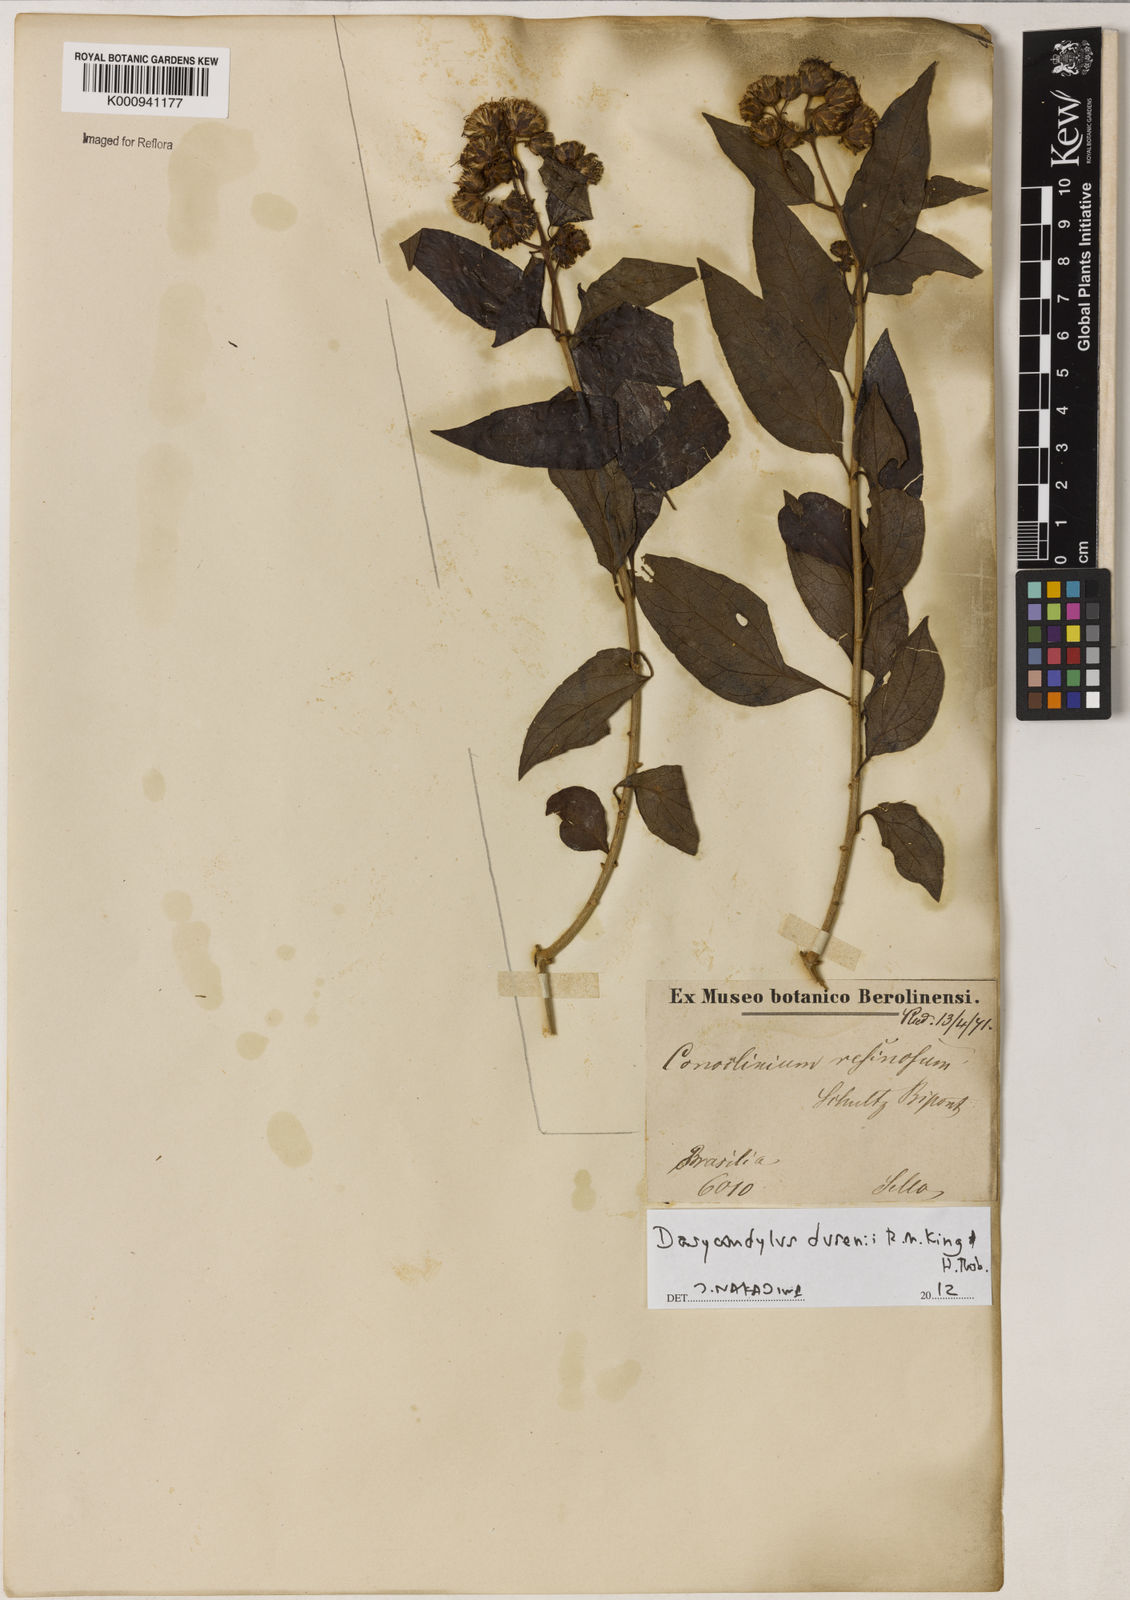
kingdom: Plantae
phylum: Tracheophyta
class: Magnoliopsida
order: Asterales
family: Asteraceae
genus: Dasycondylus
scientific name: Dasycondylus dusenii
